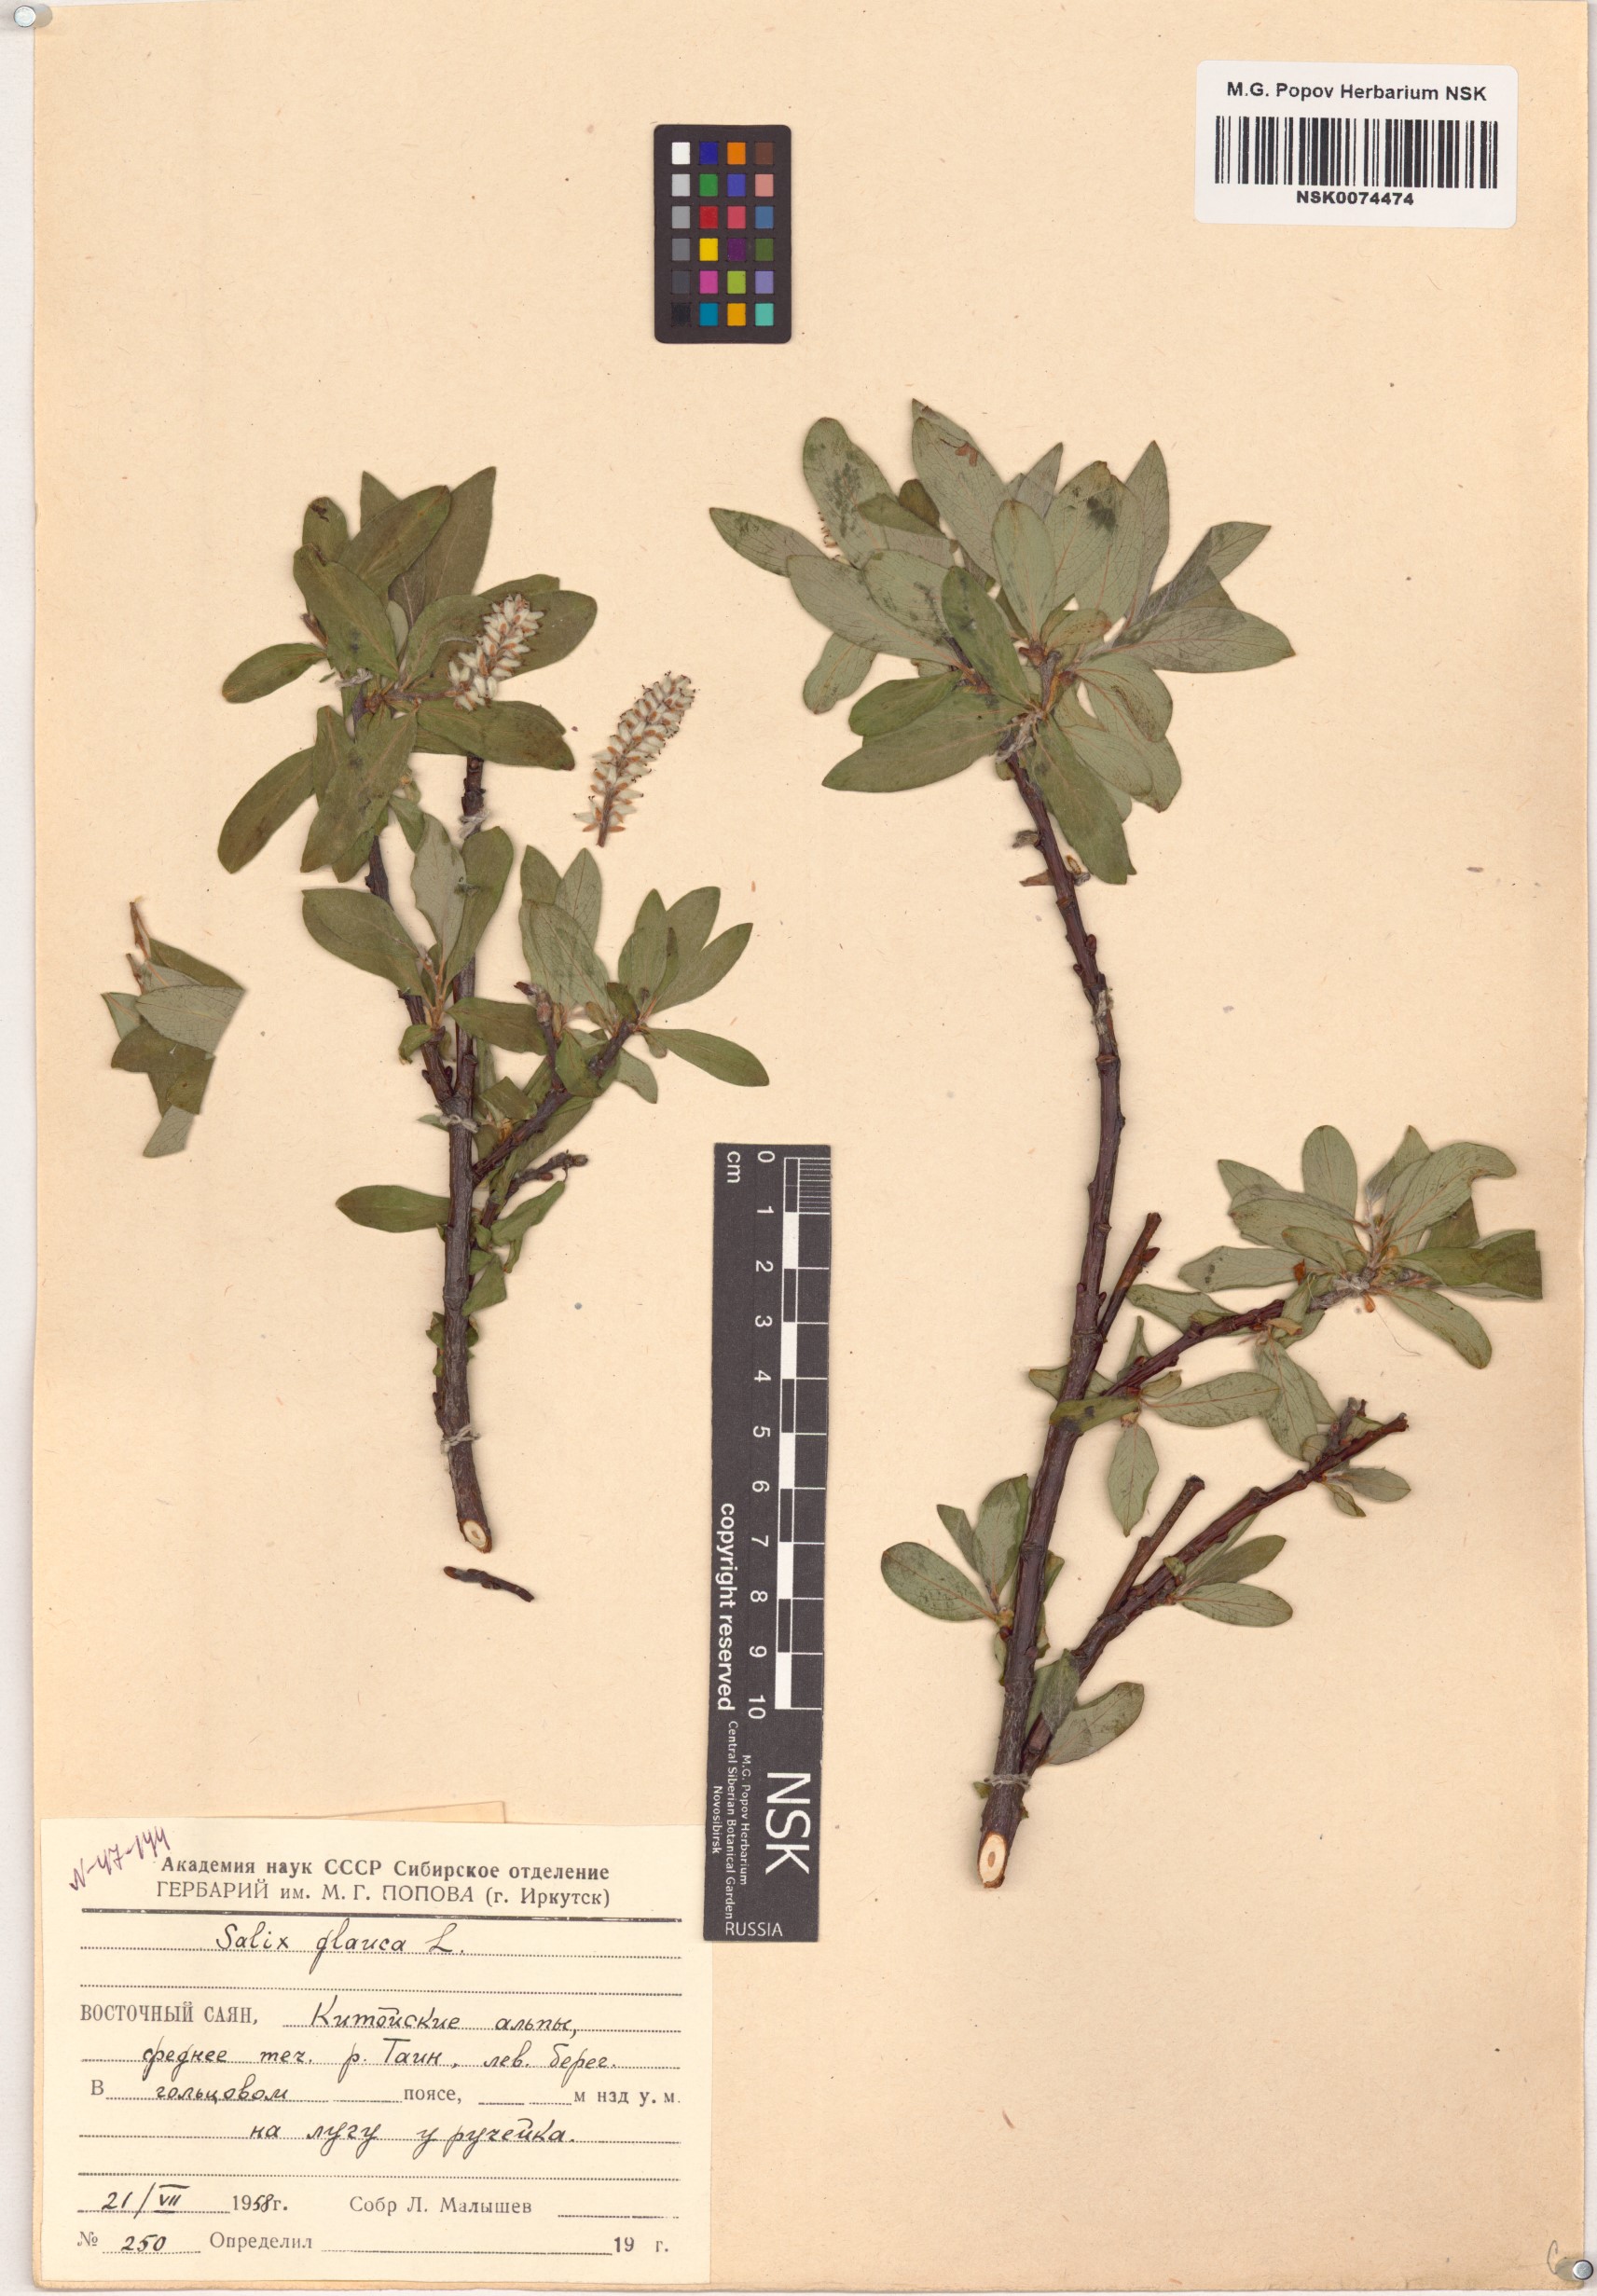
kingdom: Plantae
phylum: Tracheophyta
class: Magnoliopsida
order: Malpighiales
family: Salicaceae
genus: Salix
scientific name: Salix glauca
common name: Glaucous willow
